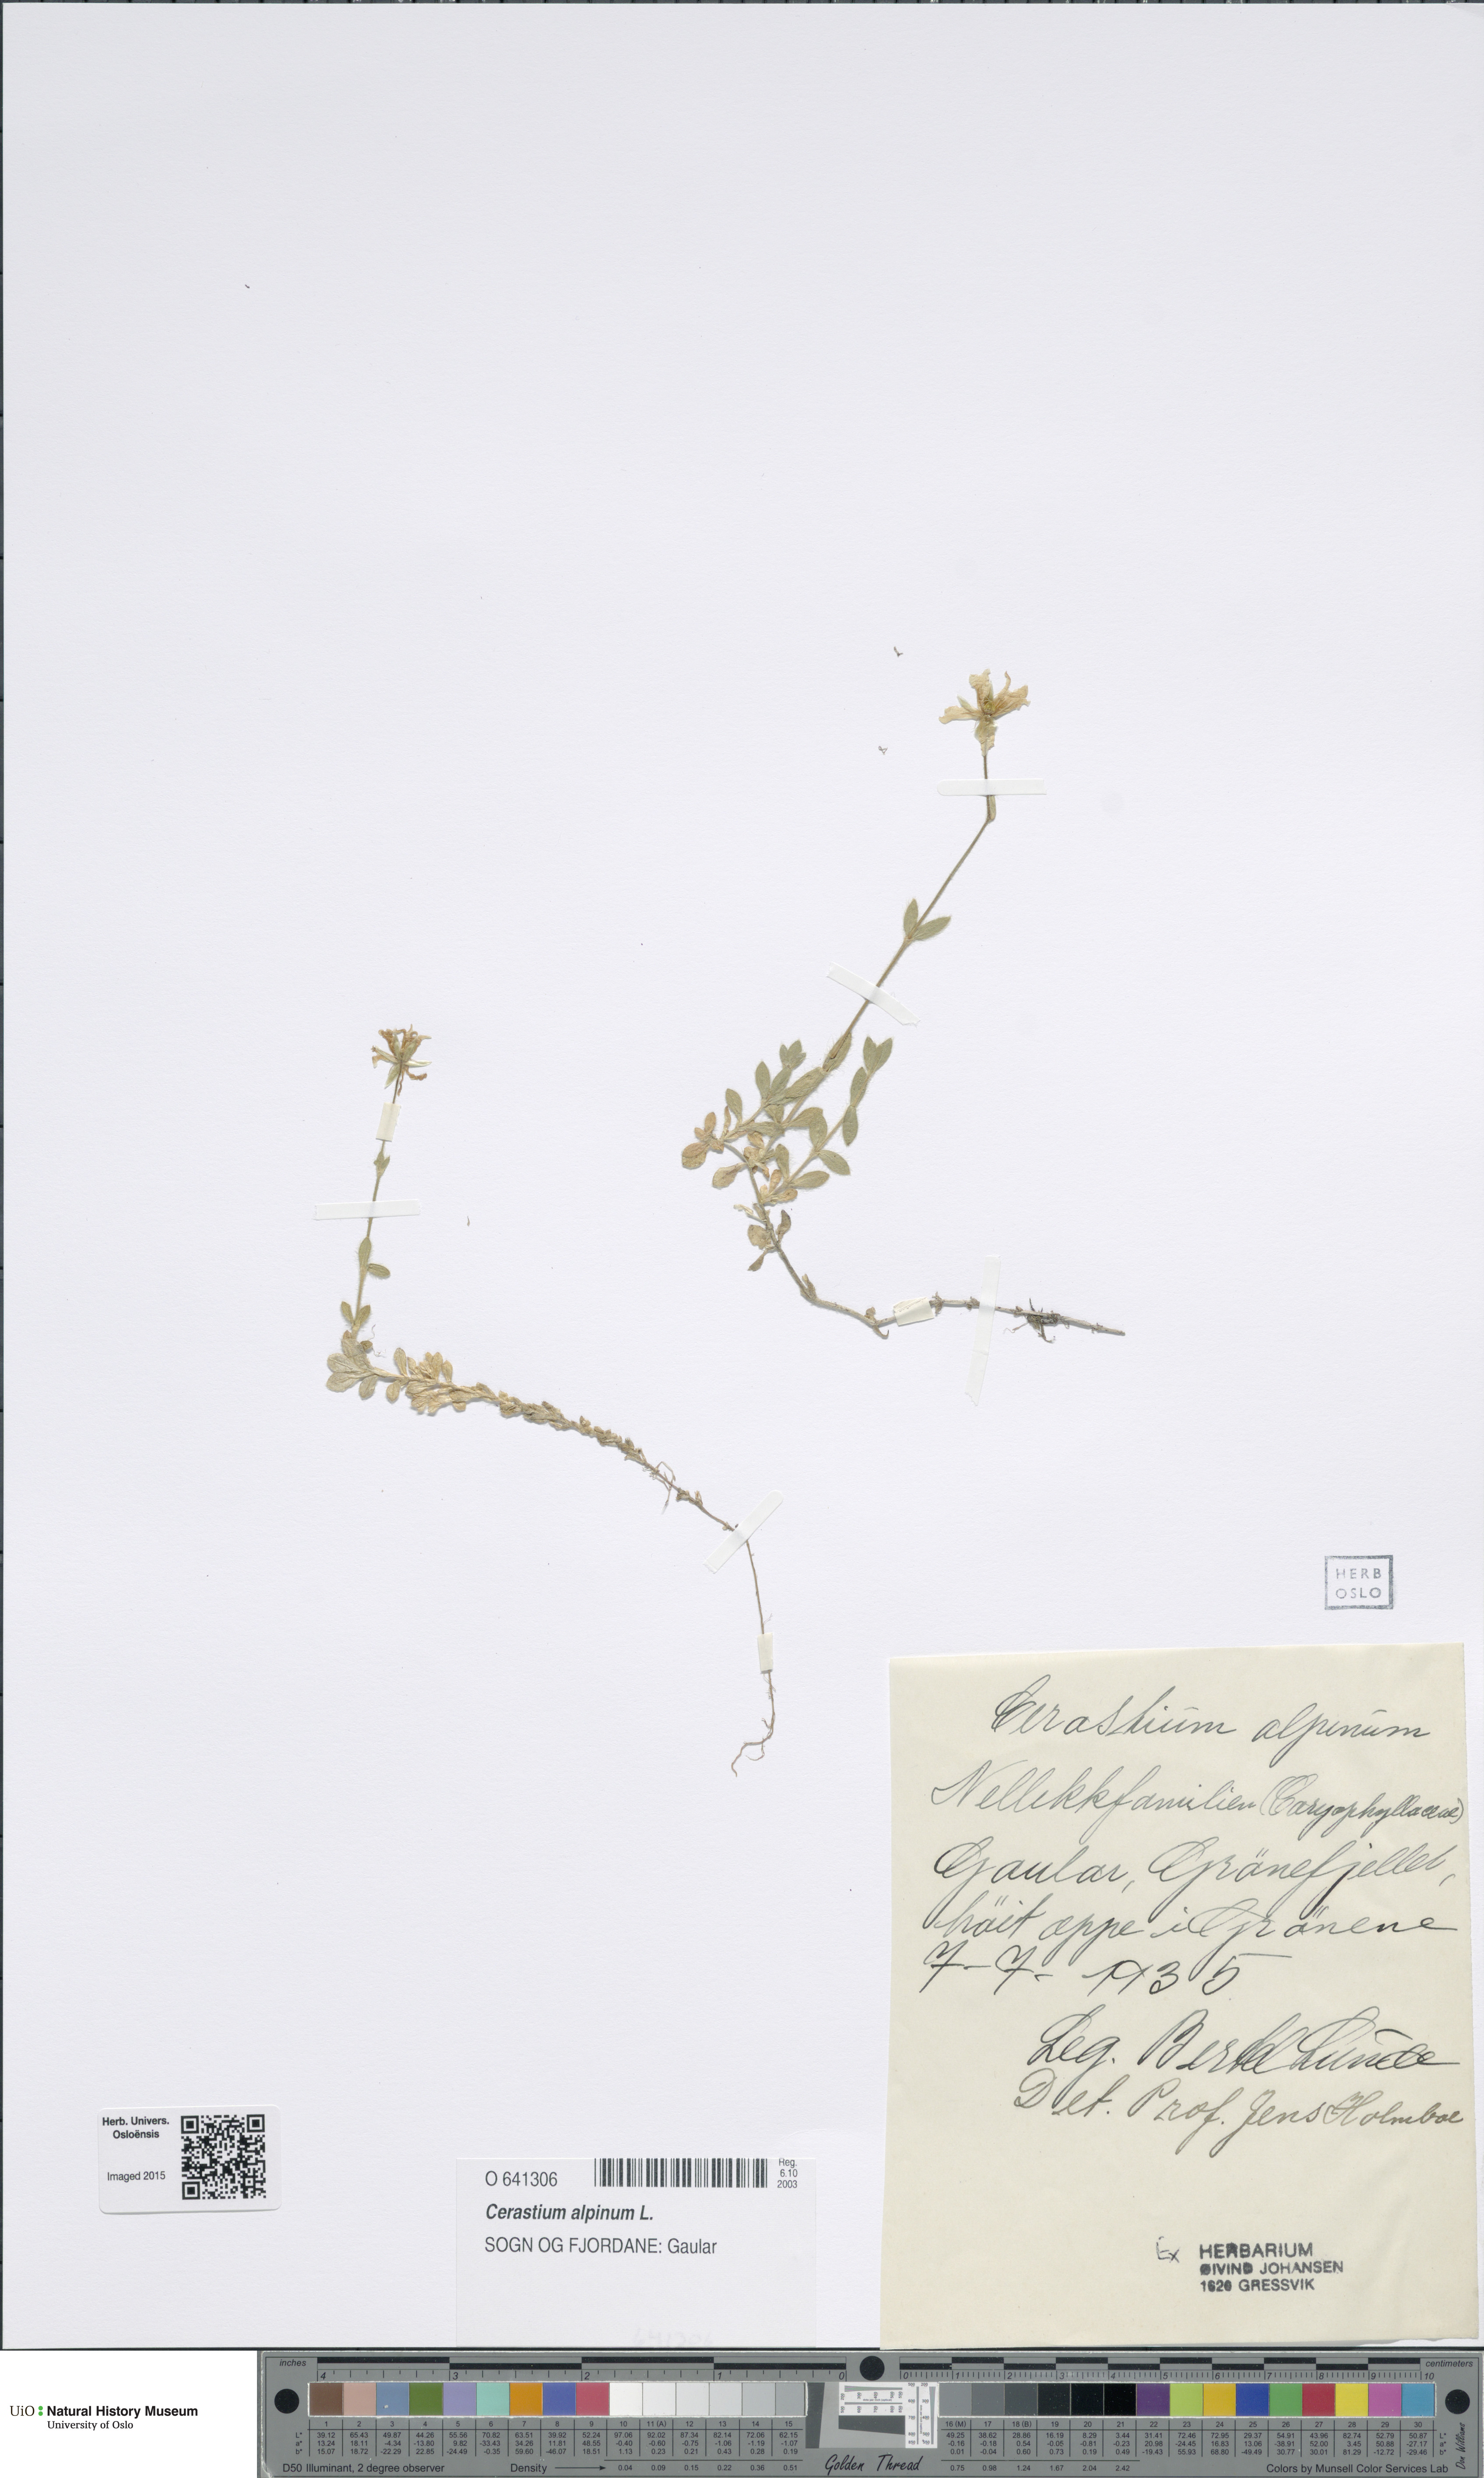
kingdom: Plantae
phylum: Tracheophyta
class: Magnoliopsida
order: Caryophyllales
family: Caryophyllaceae
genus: Cerastium
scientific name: Cerastium alpinum
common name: Alpine mouse-ear
